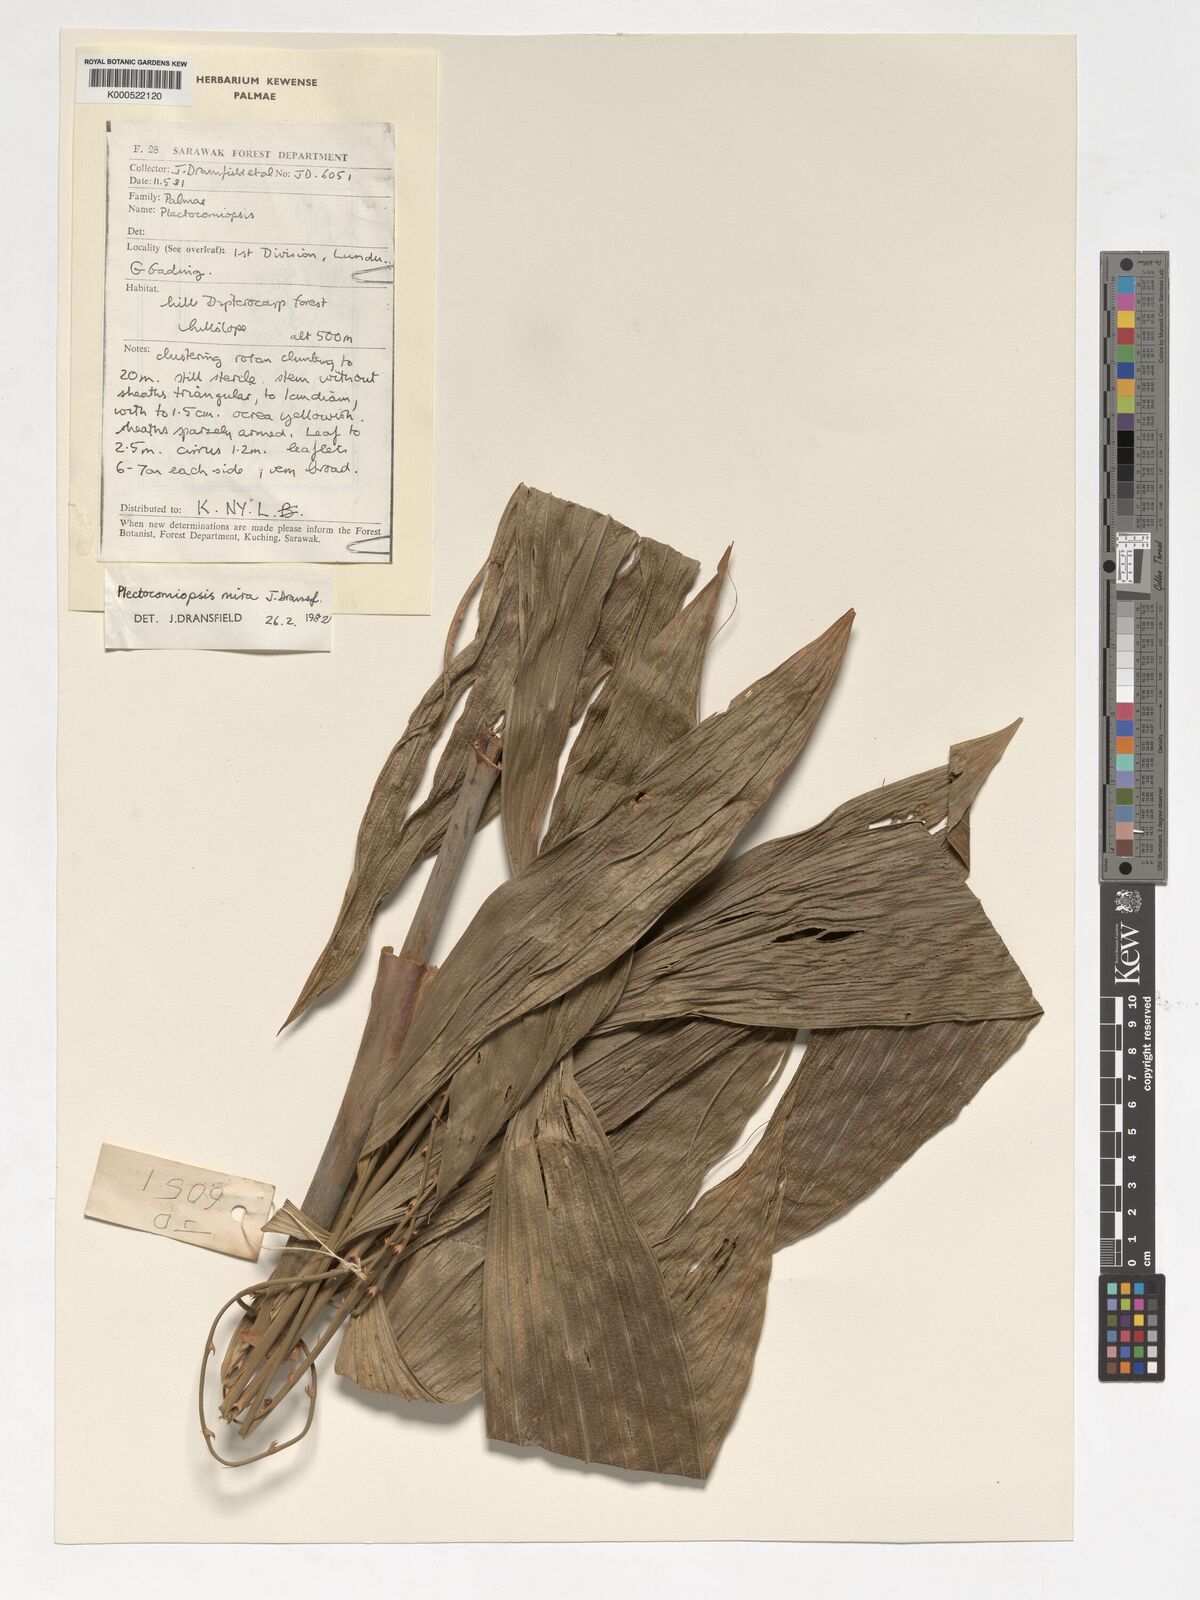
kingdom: Plantae
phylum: Tracheophyta
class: Liliopsida
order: Arecales
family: Arecaceae
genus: Plectocomiopsis
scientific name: Plectocomiopsis mira
